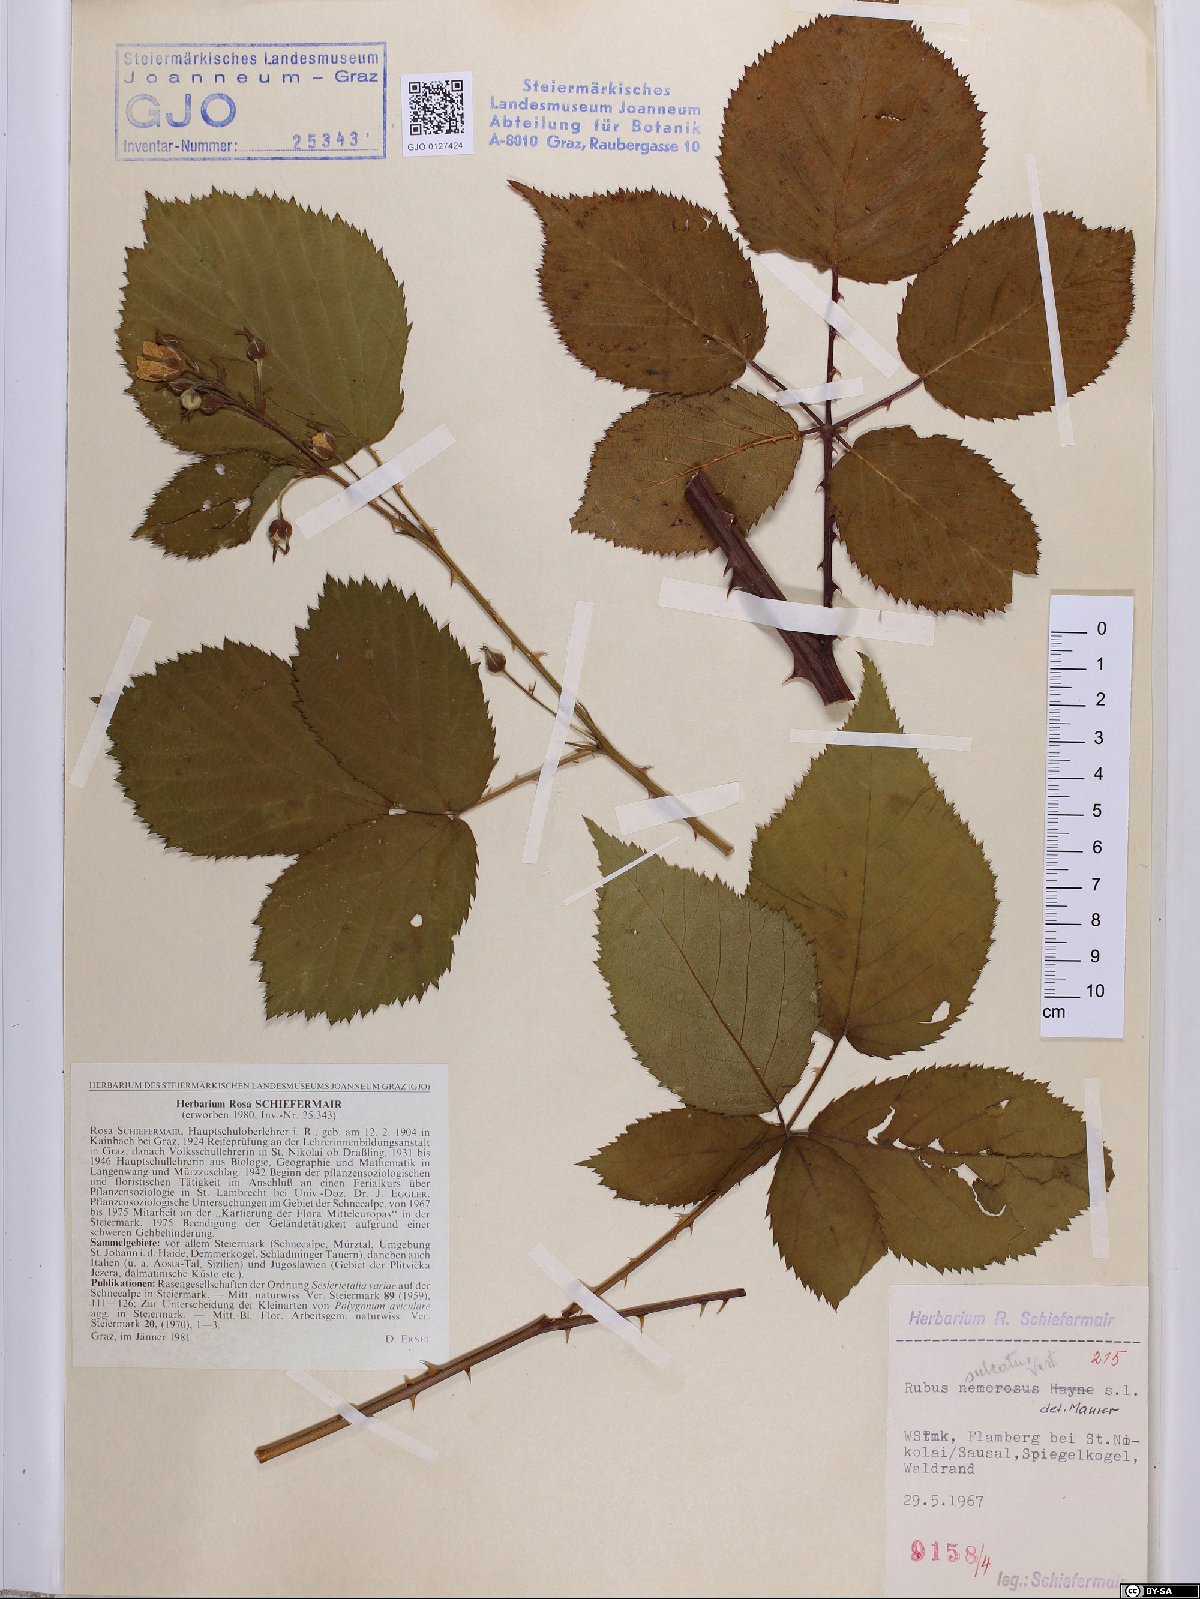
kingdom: Plantae
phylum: Tracheophyta
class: Magnoliopsida
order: Rosales
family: Rosaceae
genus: Rubus
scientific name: Rubus sulcatus
